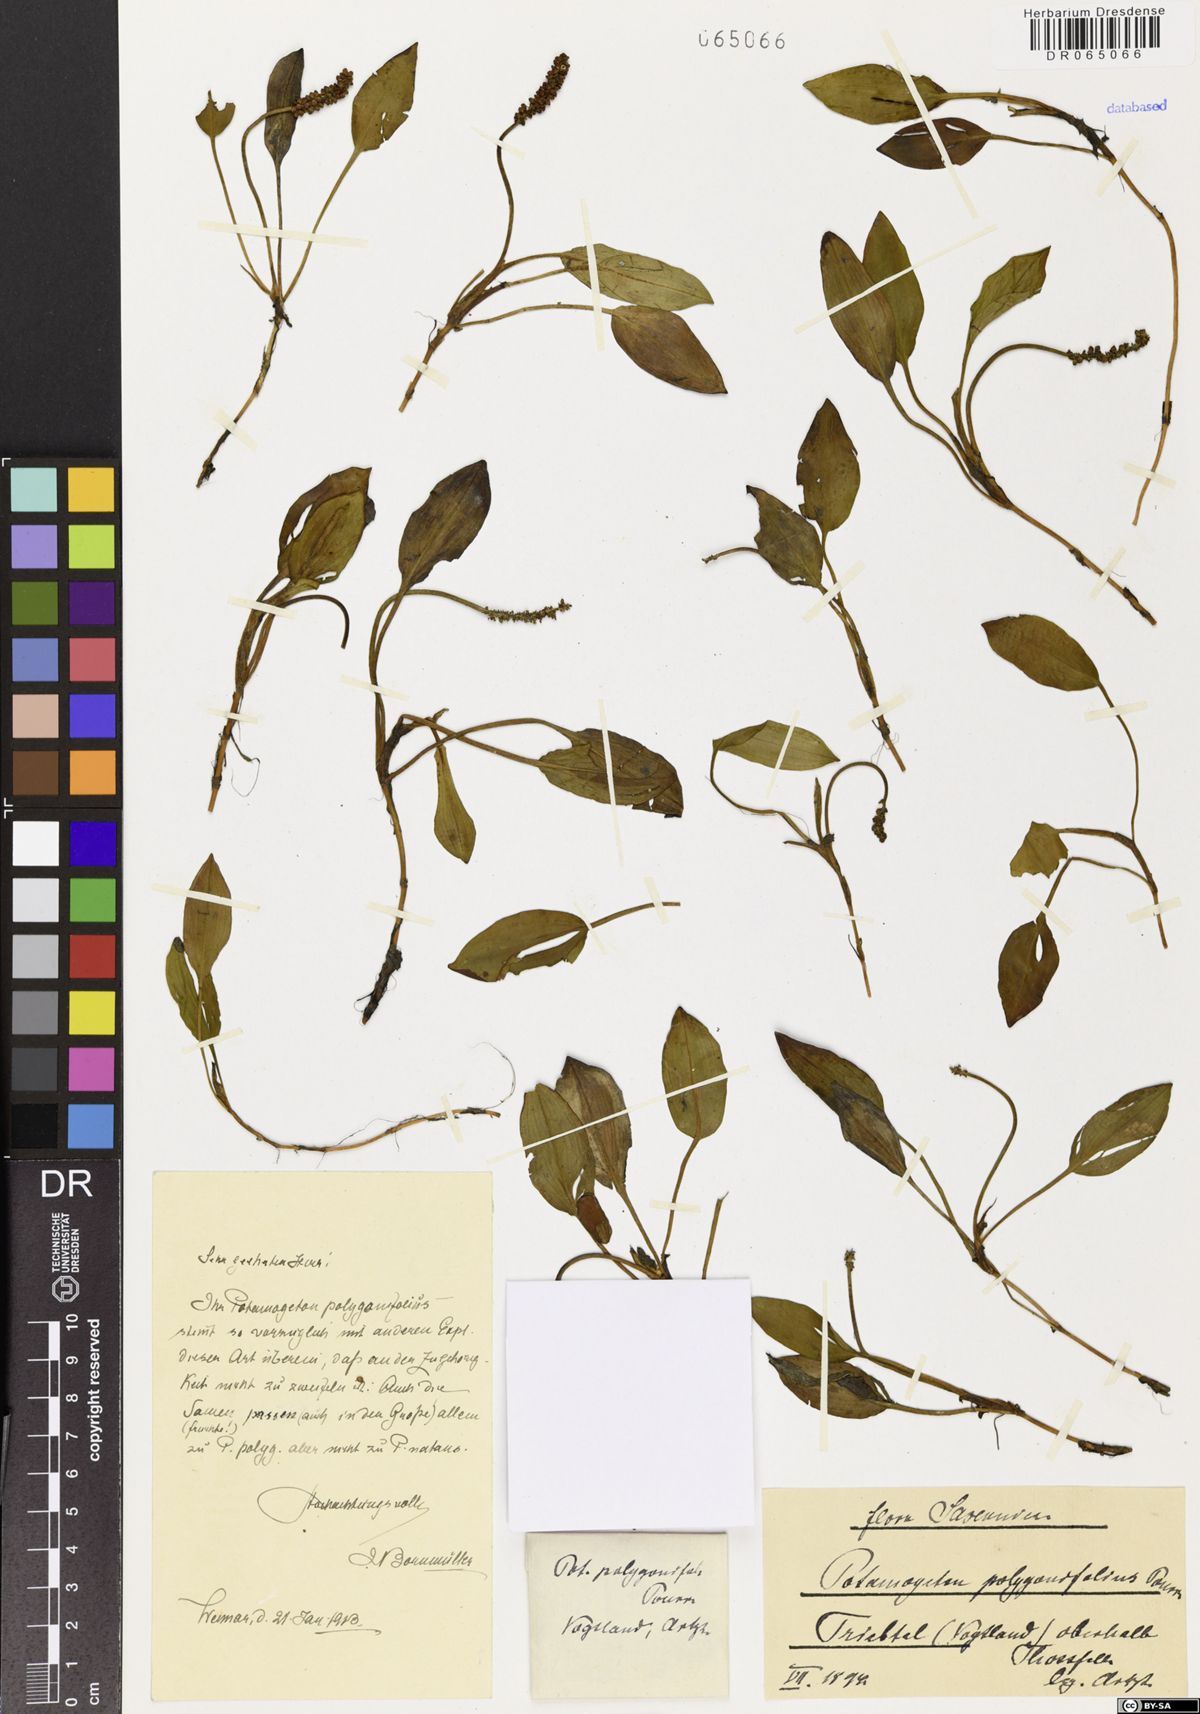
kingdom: Plantae
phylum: Tracheophyta
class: Liliopsida
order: Alismatales
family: Potamogetonaceae
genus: Potamogeton
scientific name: Potamogeton polygonifolius
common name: Bog pondweed
